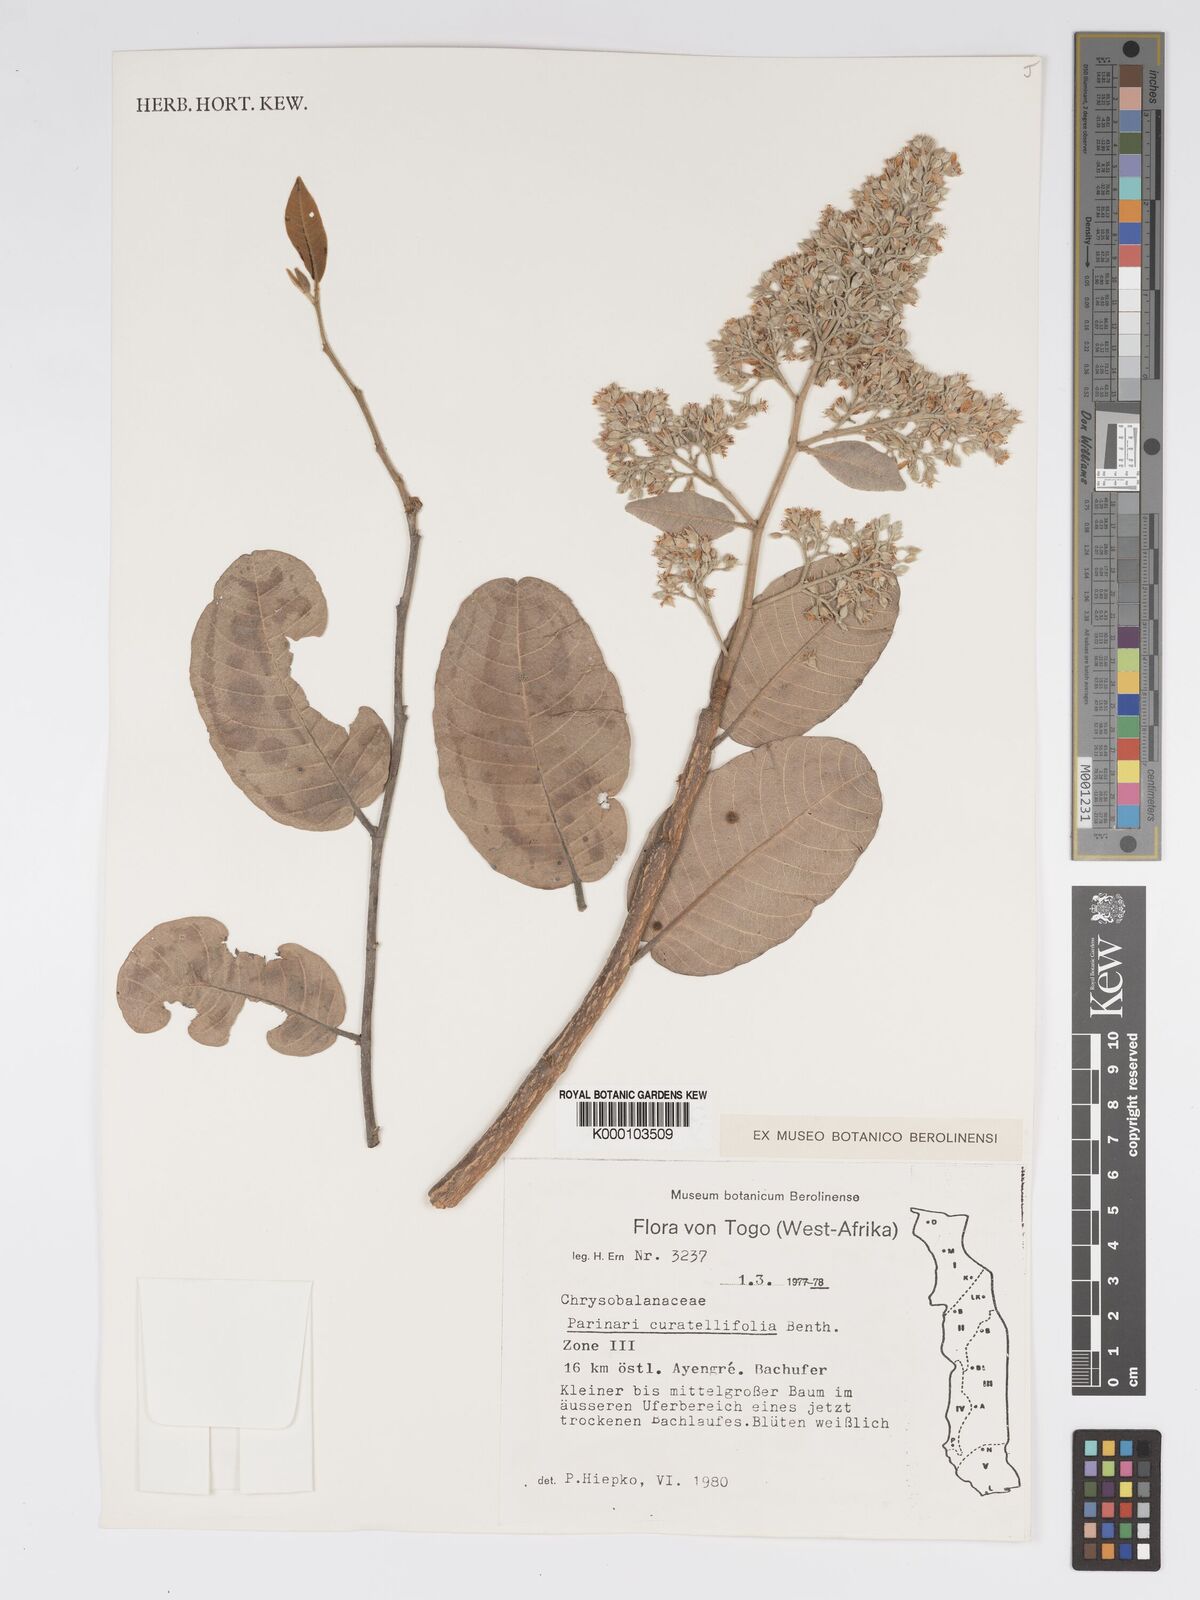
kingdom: Plantae
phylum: Tracheophyta
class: Magnoliopsida
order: Malpighiales
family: Chrysobalanaceae
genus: Parinari
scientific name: Parinari curatellifolia
